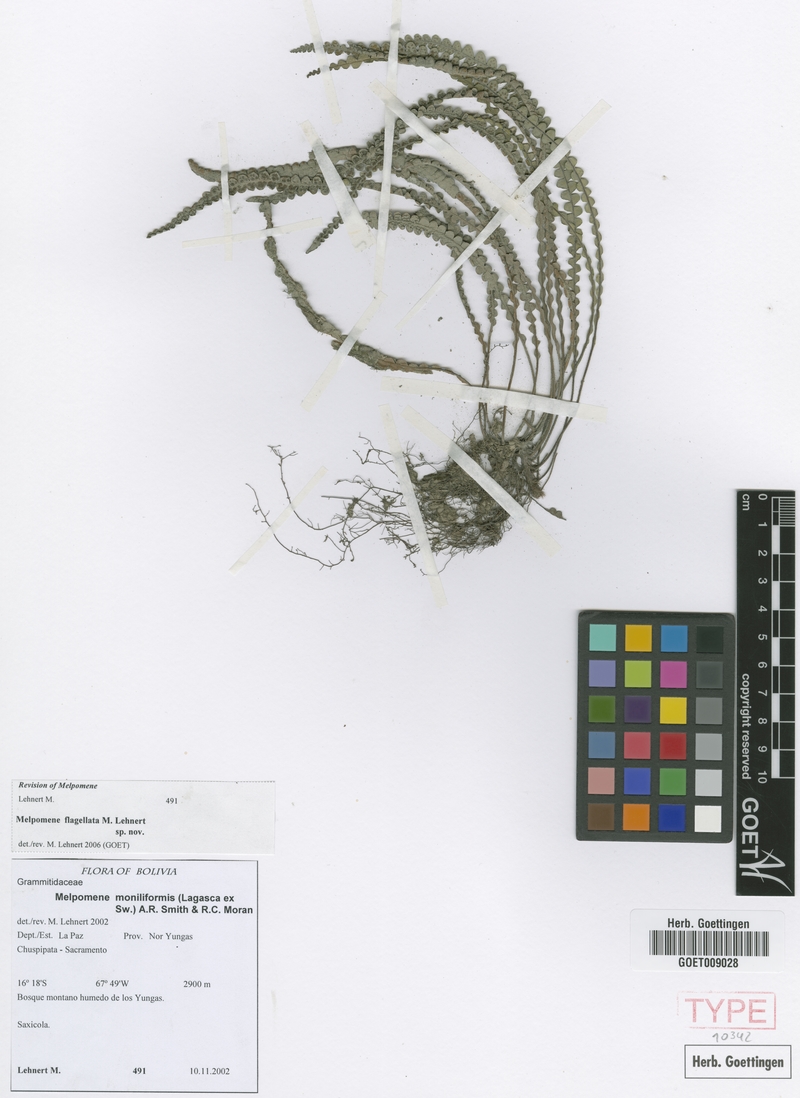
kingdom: Plantae
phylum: Tracheophyta
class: Polypodiopsida
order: Polypodiales
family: Polypodiaceae
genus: Melpomene
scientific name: Melpomene flagellata
